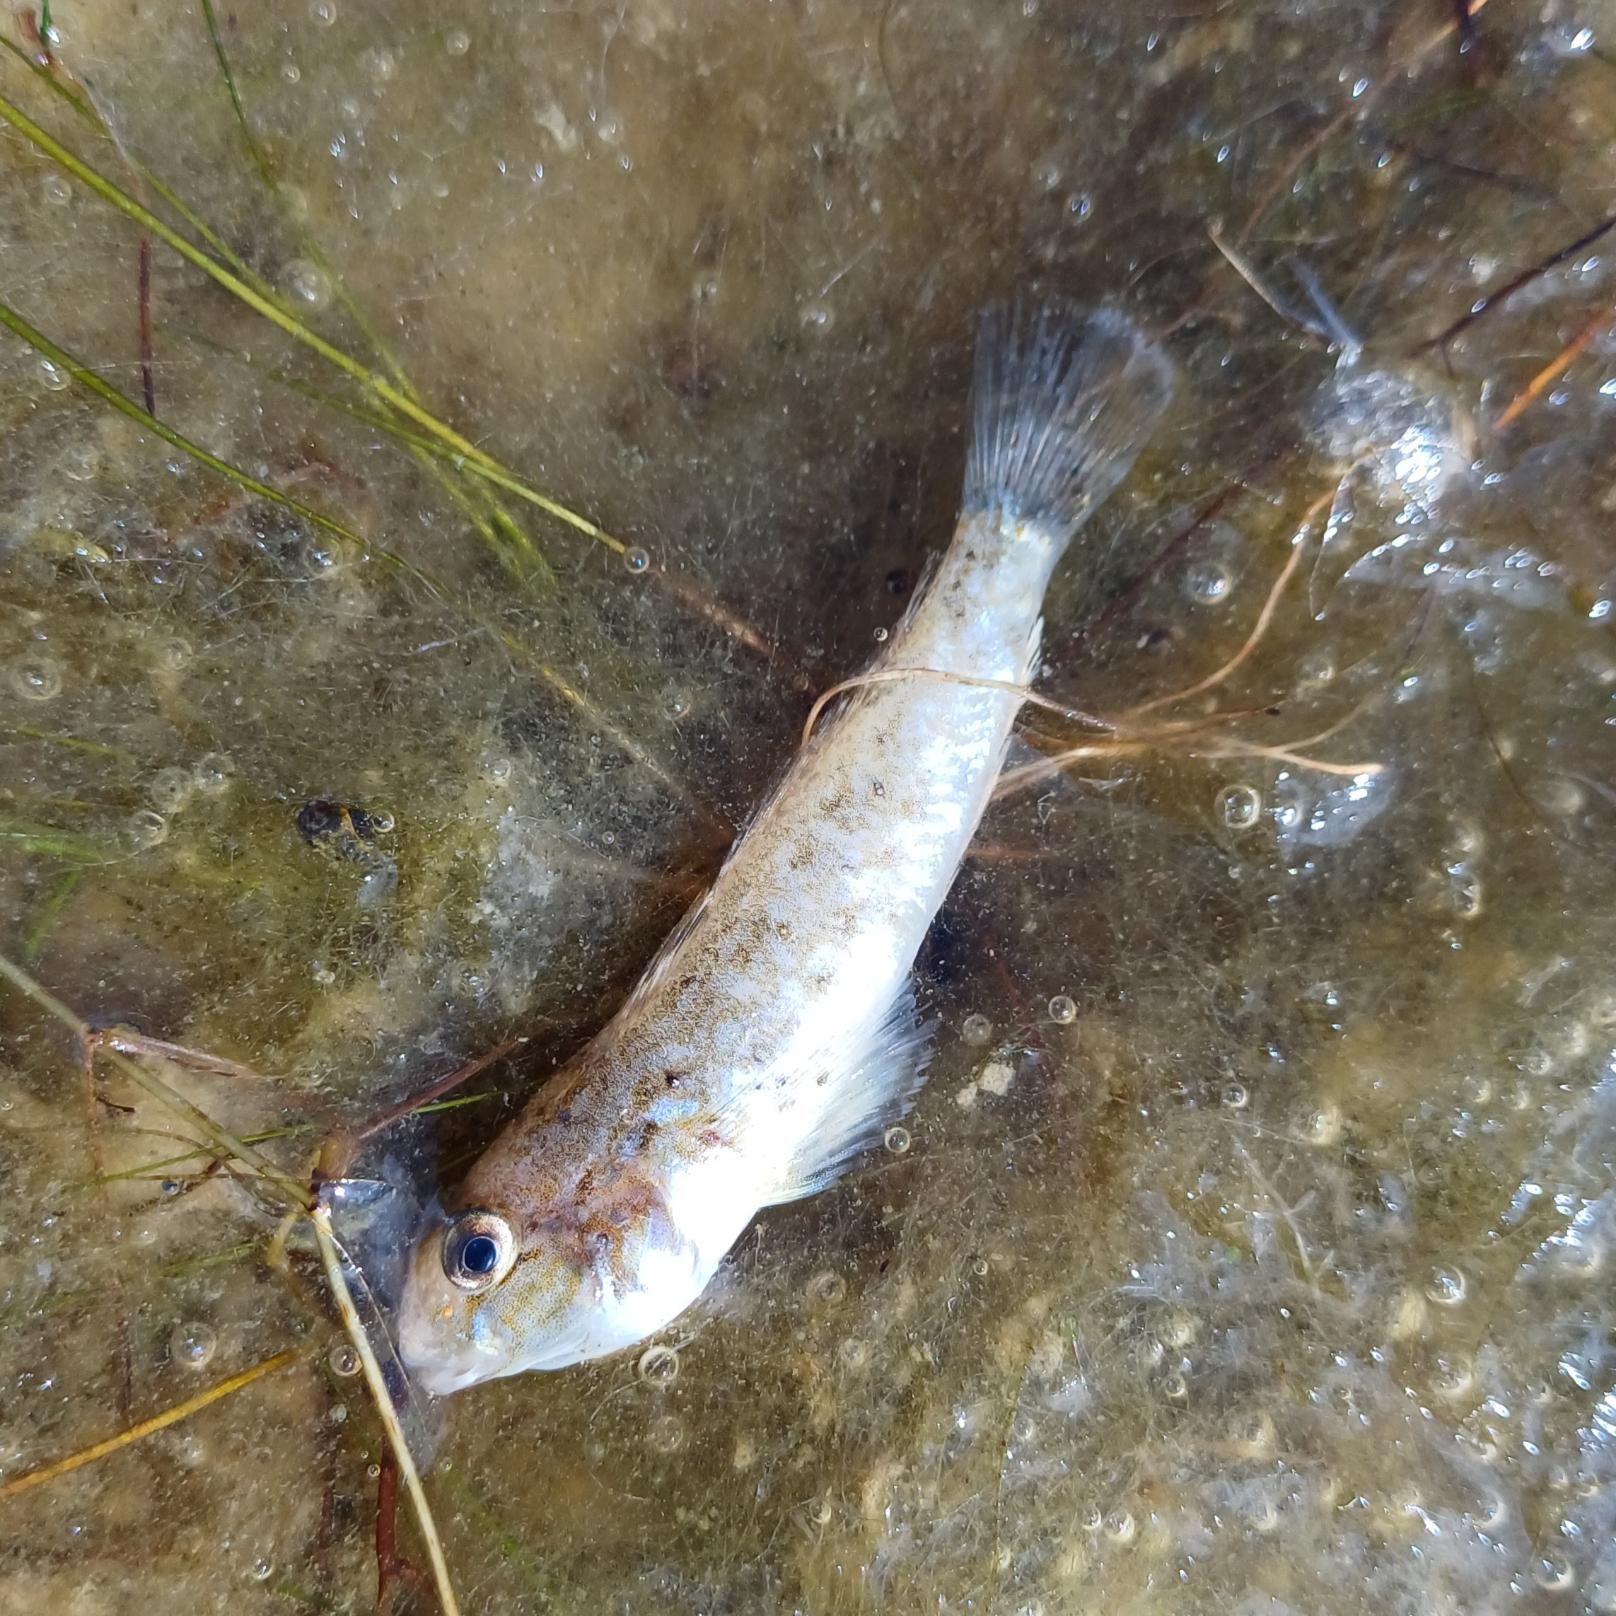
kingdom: Animalia
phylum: Chordata
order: Perciformes
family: Gobiidae
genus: Neogobius
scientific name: Neogobius melanostomus
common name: Sortmundet kutling
